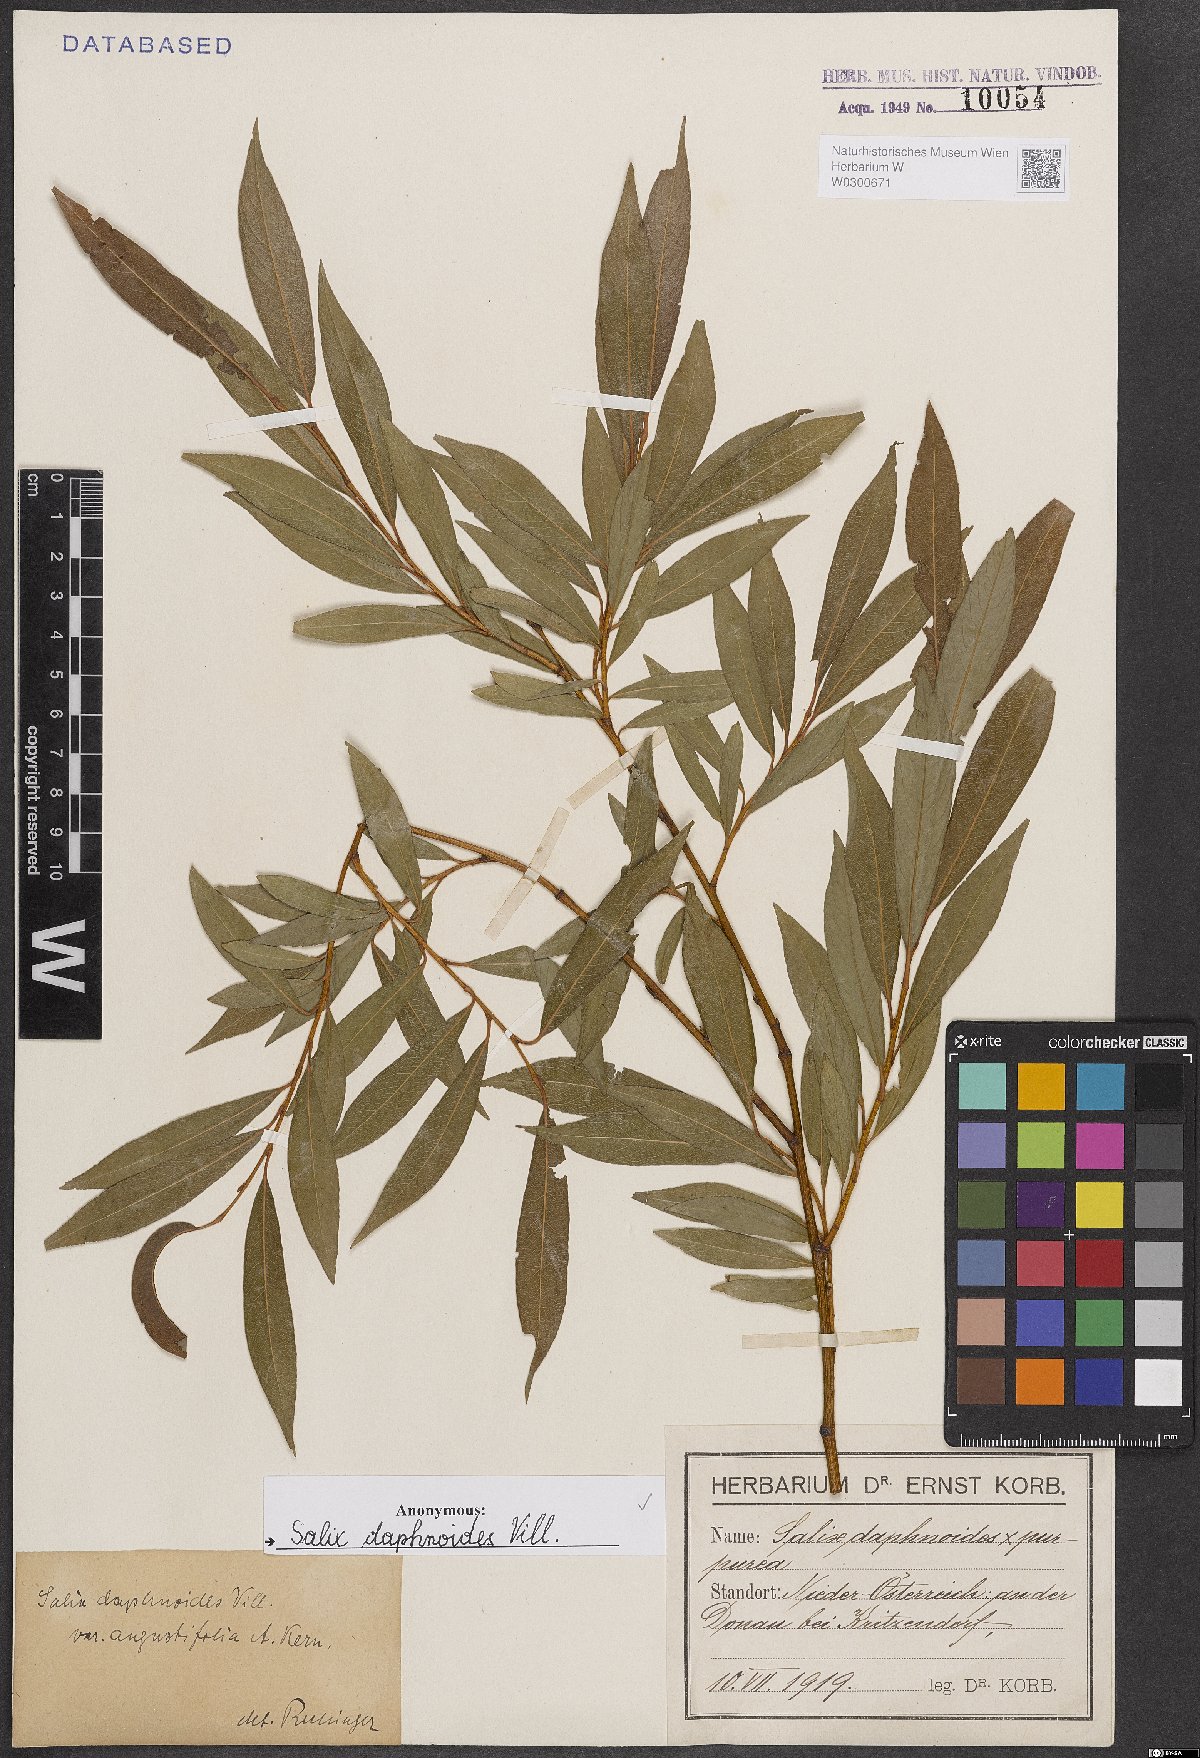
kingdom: Plantae
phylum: Tracheophyta
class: Magnoliopsida
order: Malpighiales
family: Salicaceae
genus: Salix
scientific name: Salix daphnoides
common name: European violet-willow
